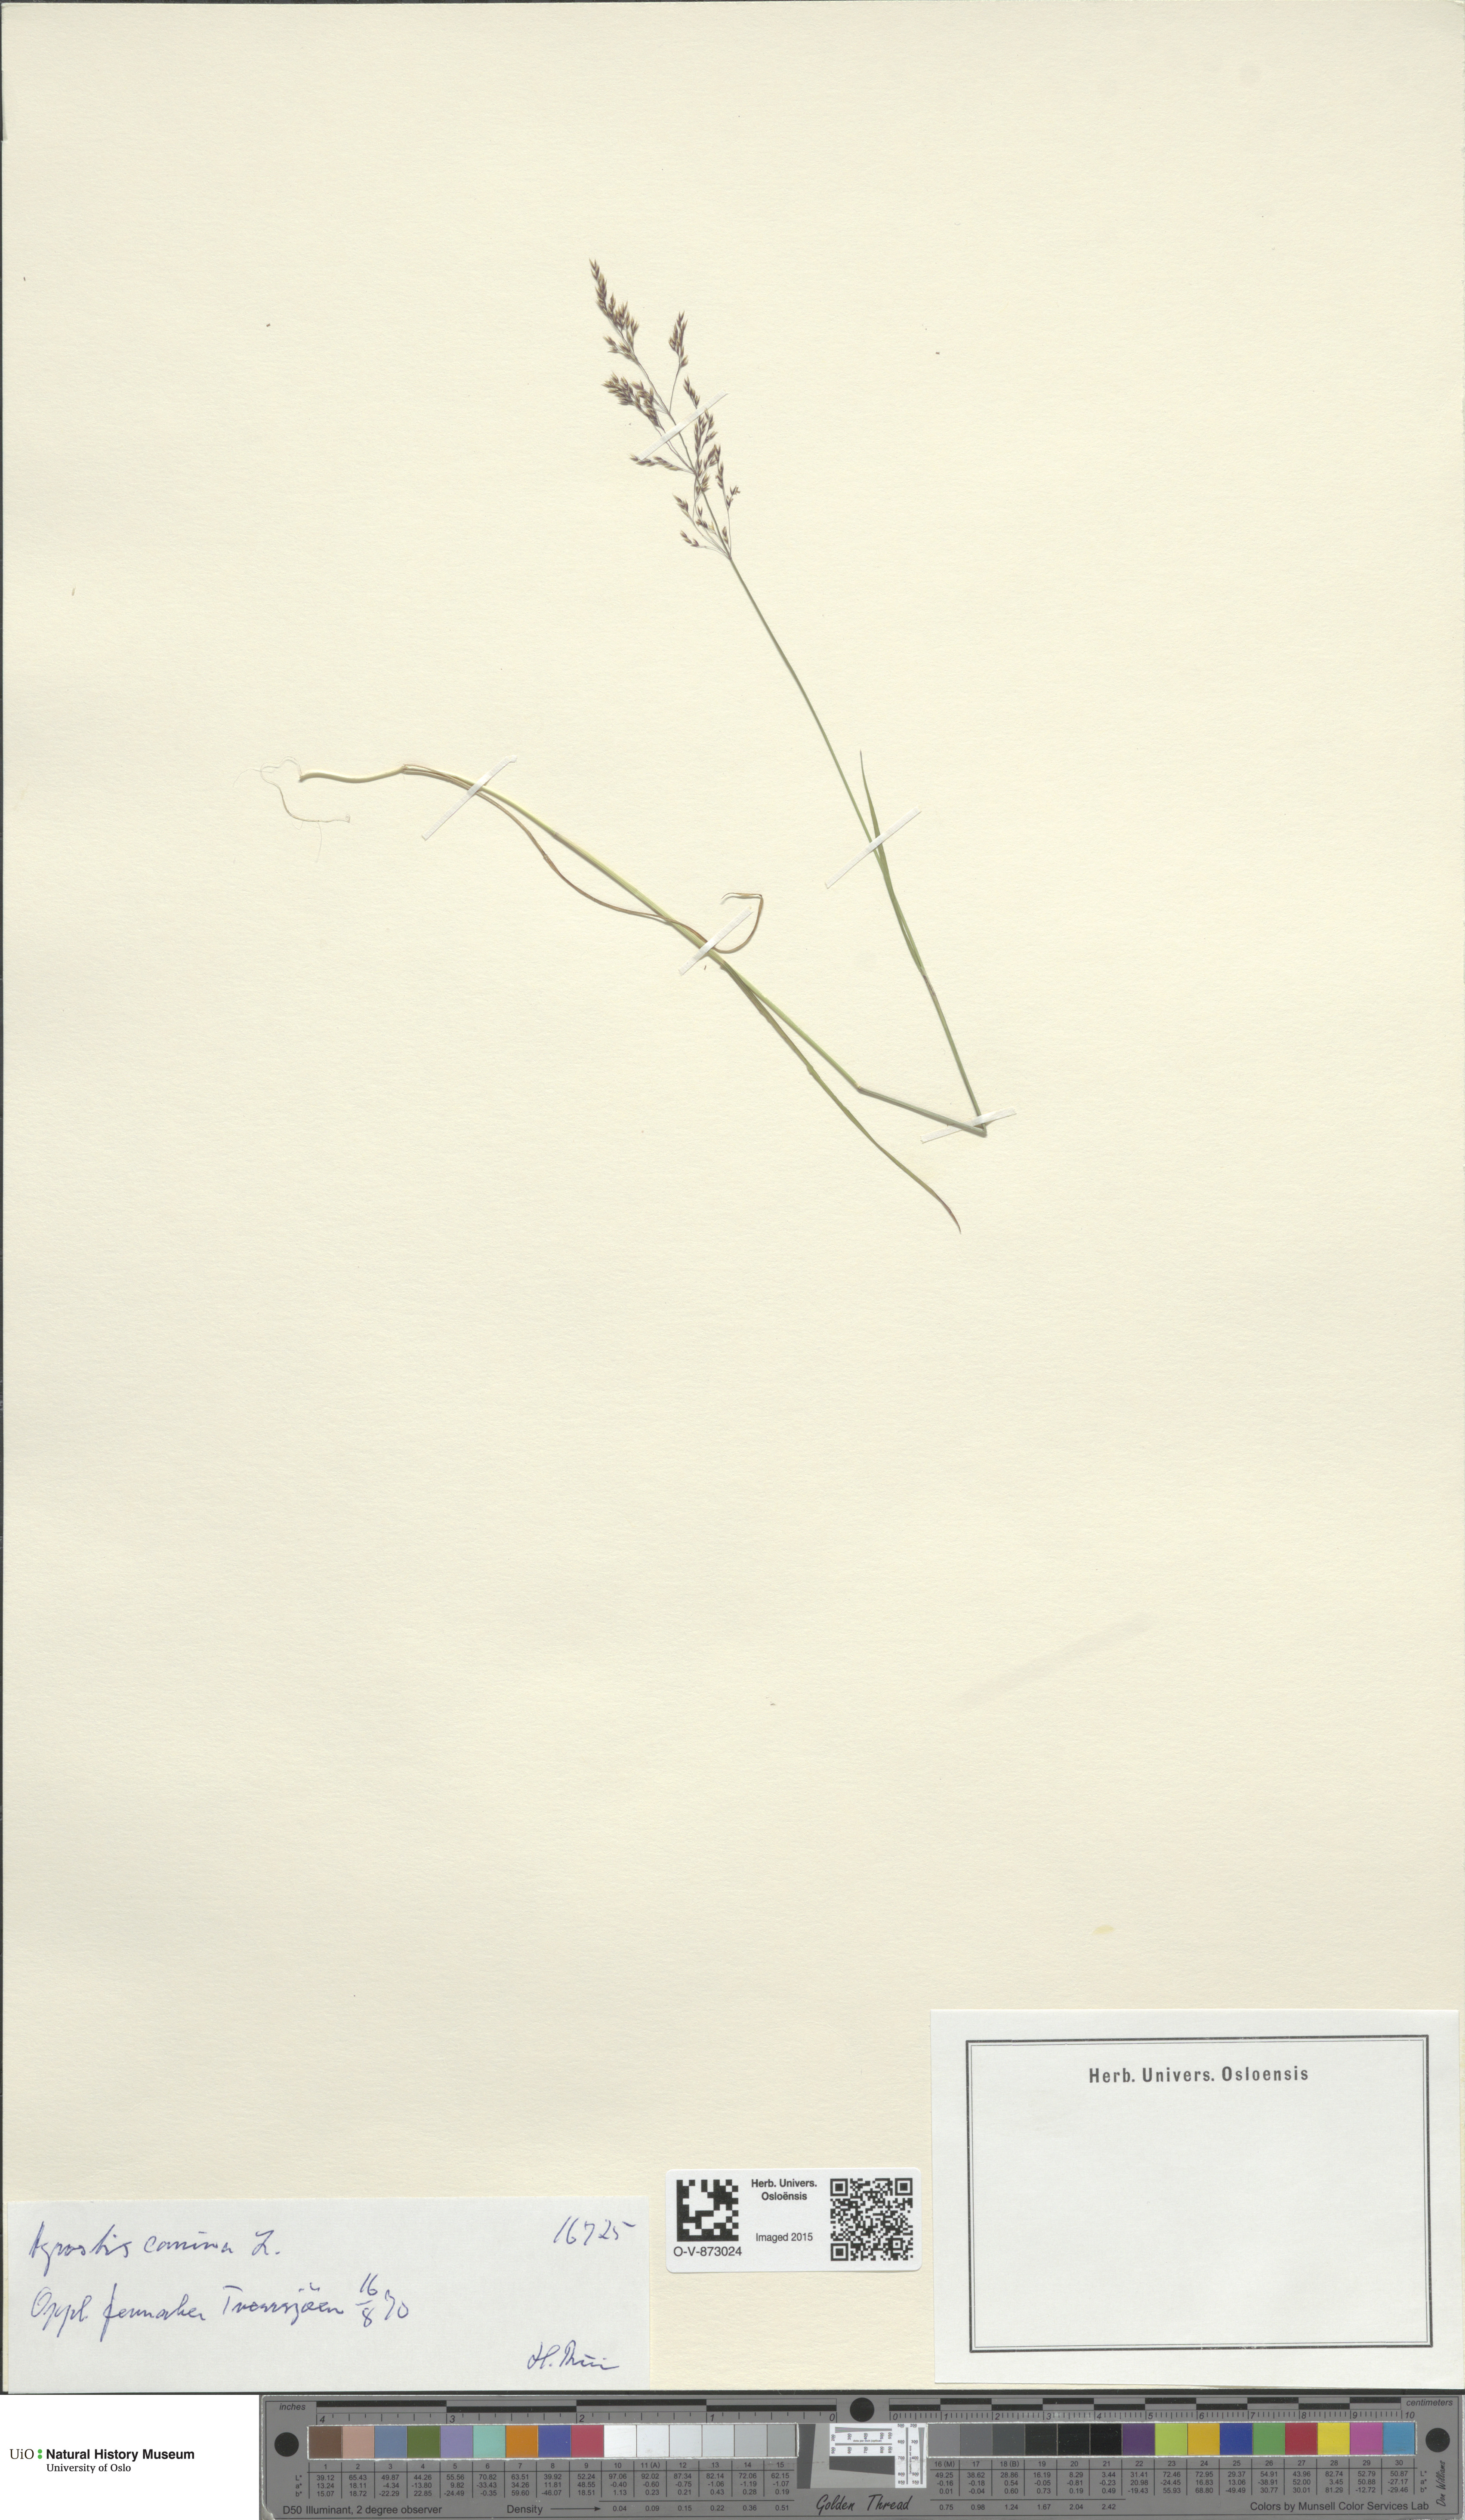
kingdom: Plantae
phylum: Tracheophyta
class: Liliopsida
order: Poales
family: Poaceae
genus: Agrostis
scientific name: Agrostis canina
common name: Velvet bent
